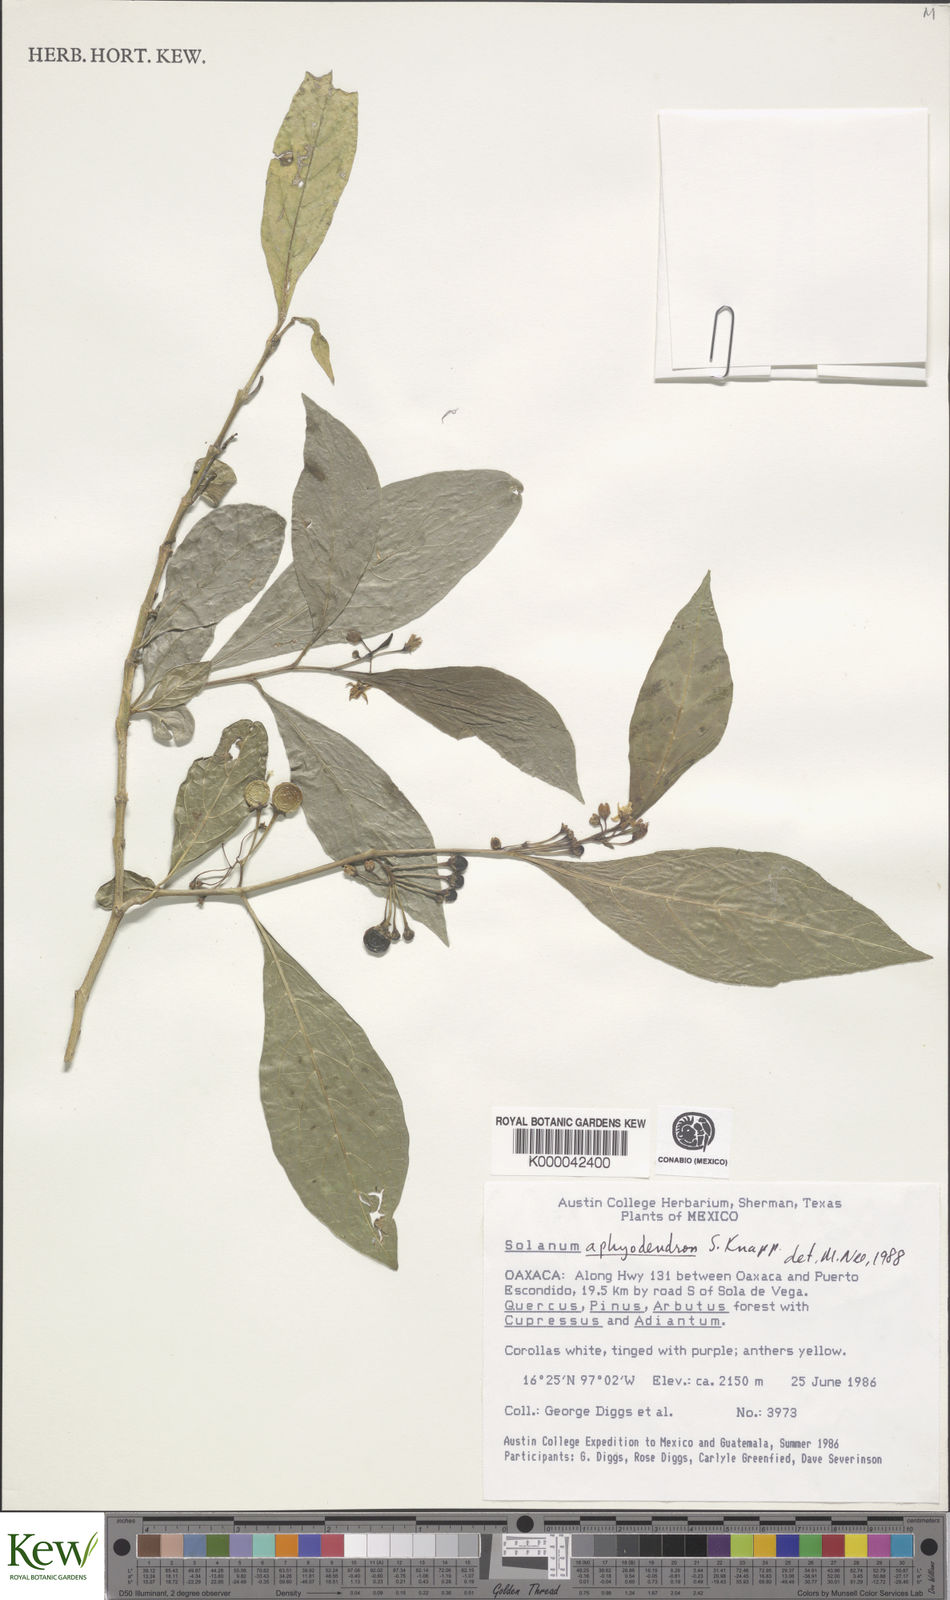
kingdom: Plantae
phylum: Tracheophyta
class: Magnoliopsida
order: Solanales
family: Solanaceae
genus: Solanum
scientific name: Solanum aphyodendron
